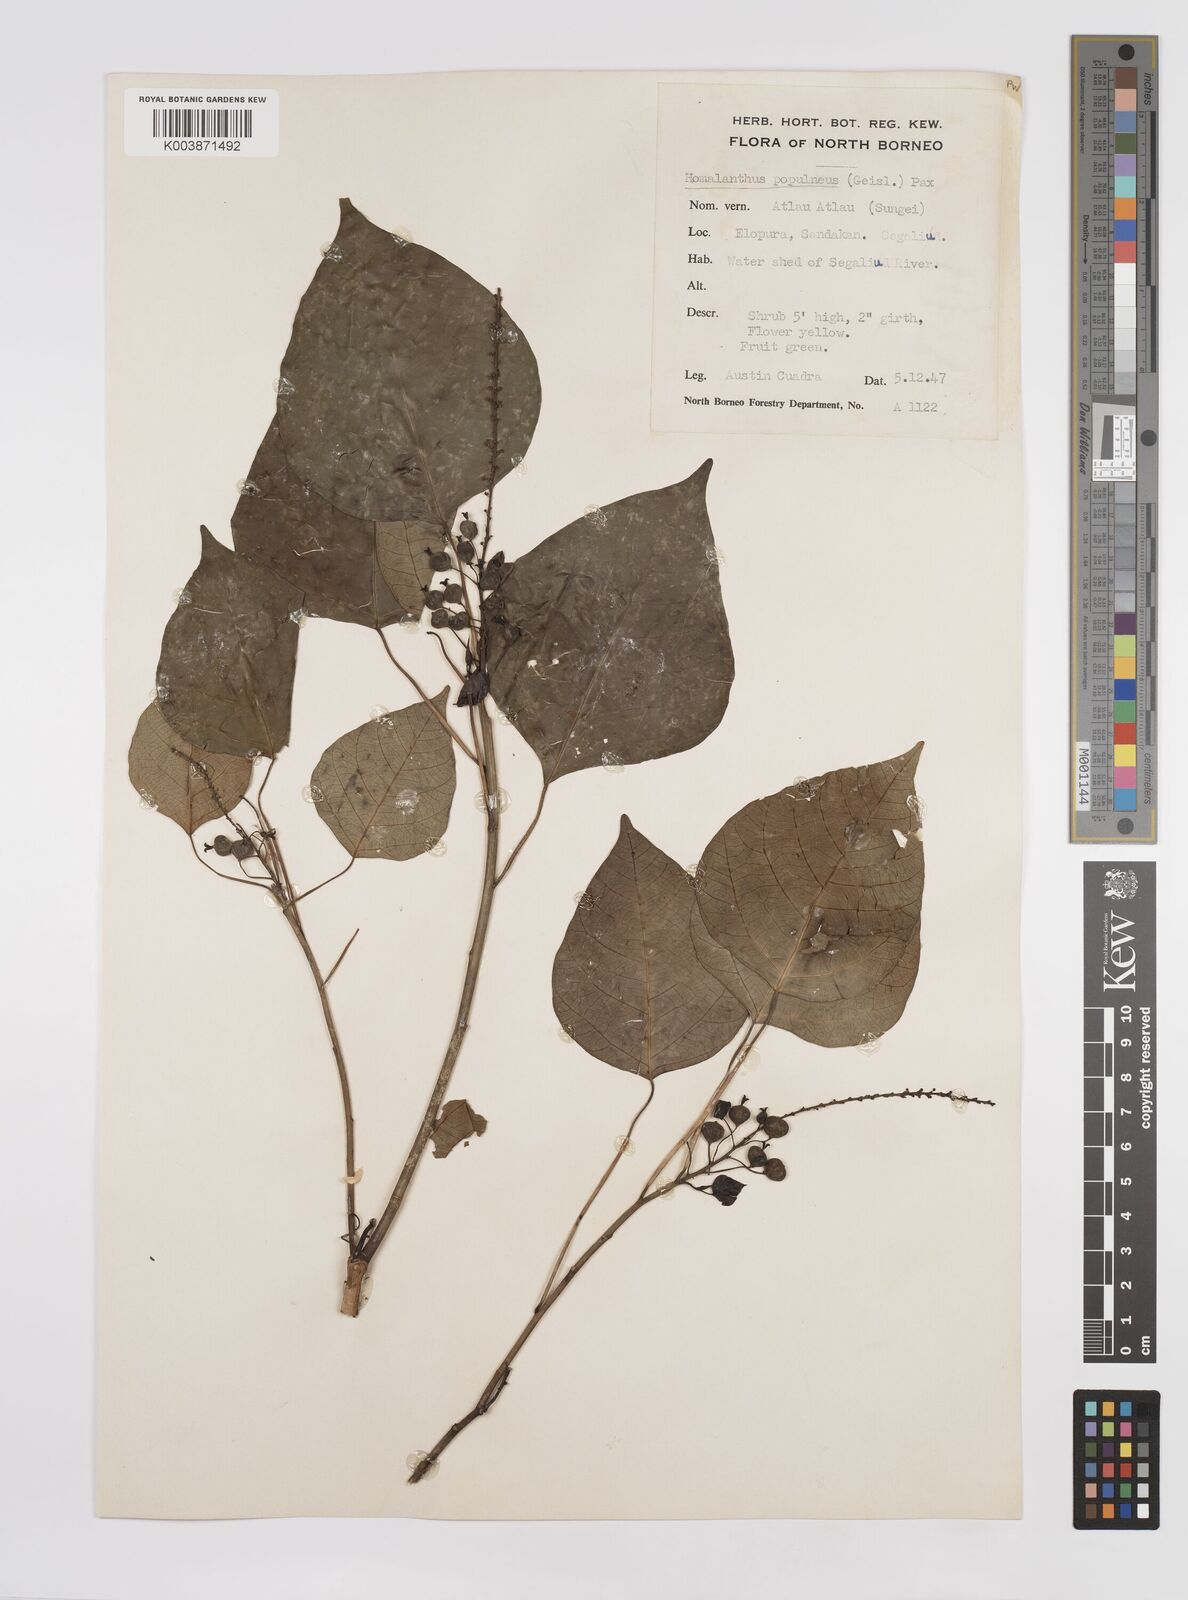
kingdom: Plantae
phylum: Tracheophyta
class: Magnoliopsida
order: Malpighiales
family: Euphorbiaceae
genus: Homalanthus
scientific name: Homalanthus populneus
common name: Spurge
